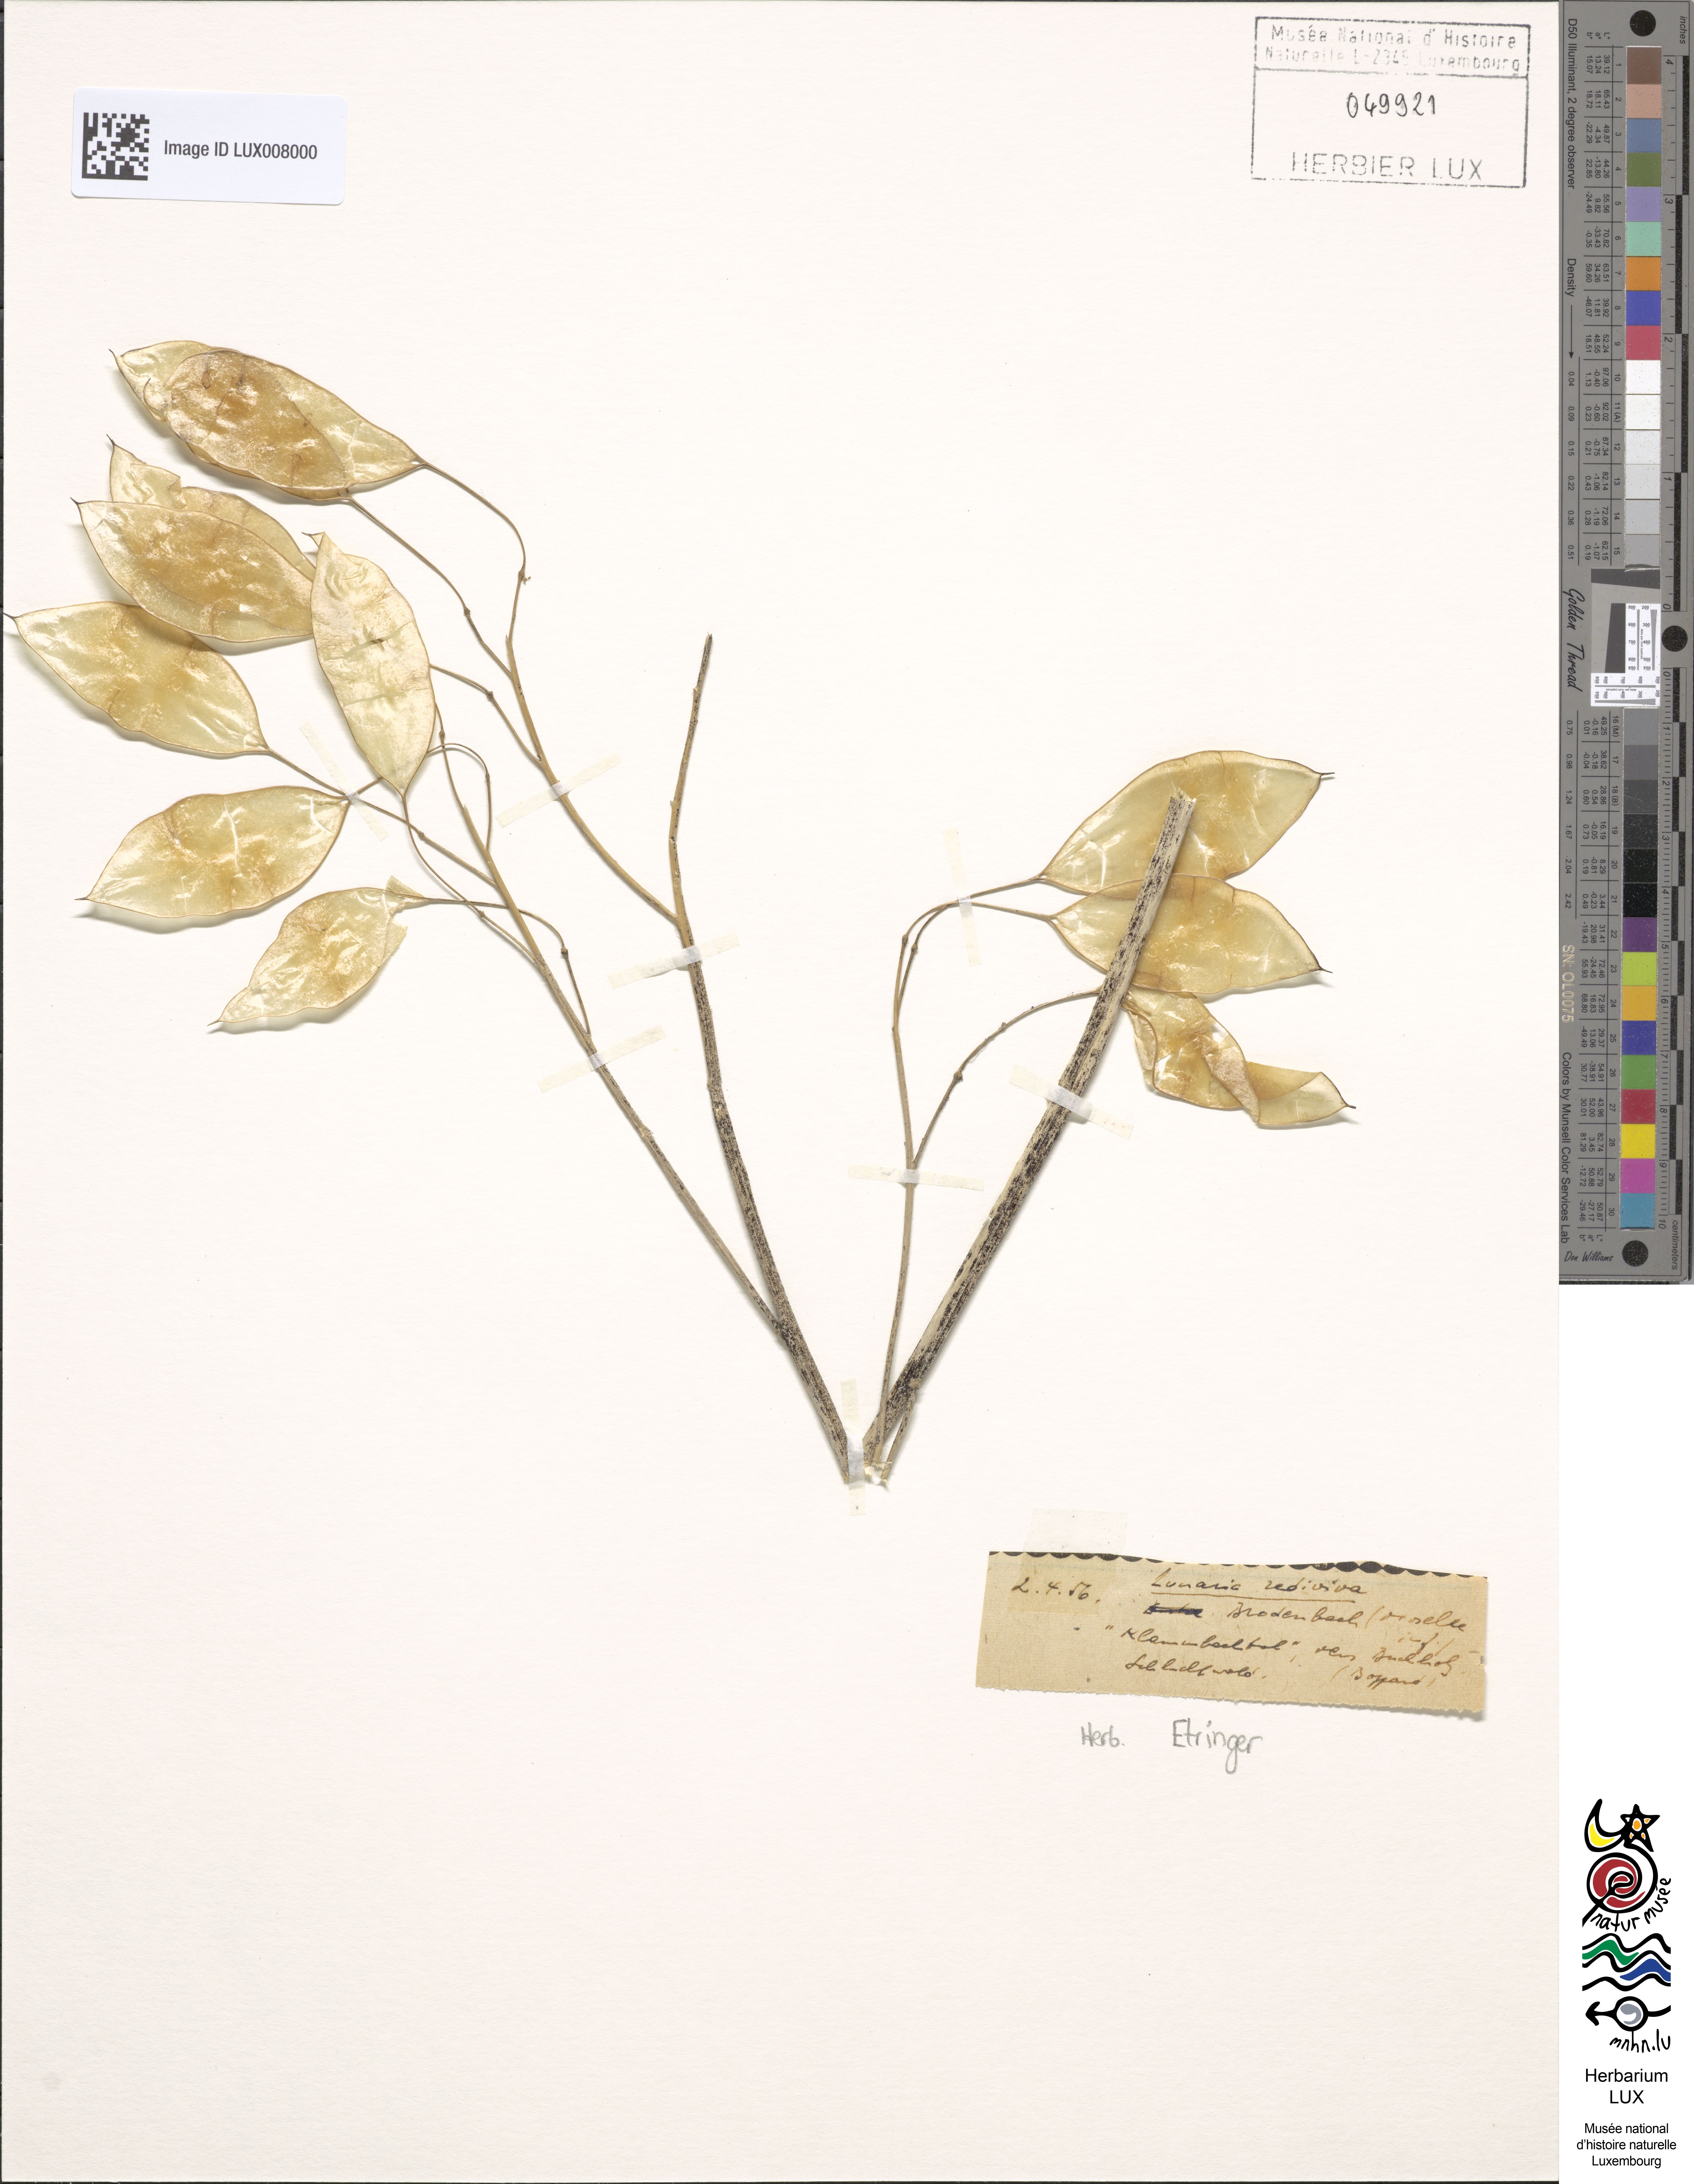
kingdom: Plantae
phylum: Tracheophyta
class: Magnoliopsida
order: Brassicales
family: Brassicaceae
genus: Lunaria
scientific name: Lunaria rediviva
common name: Perennial honesty
